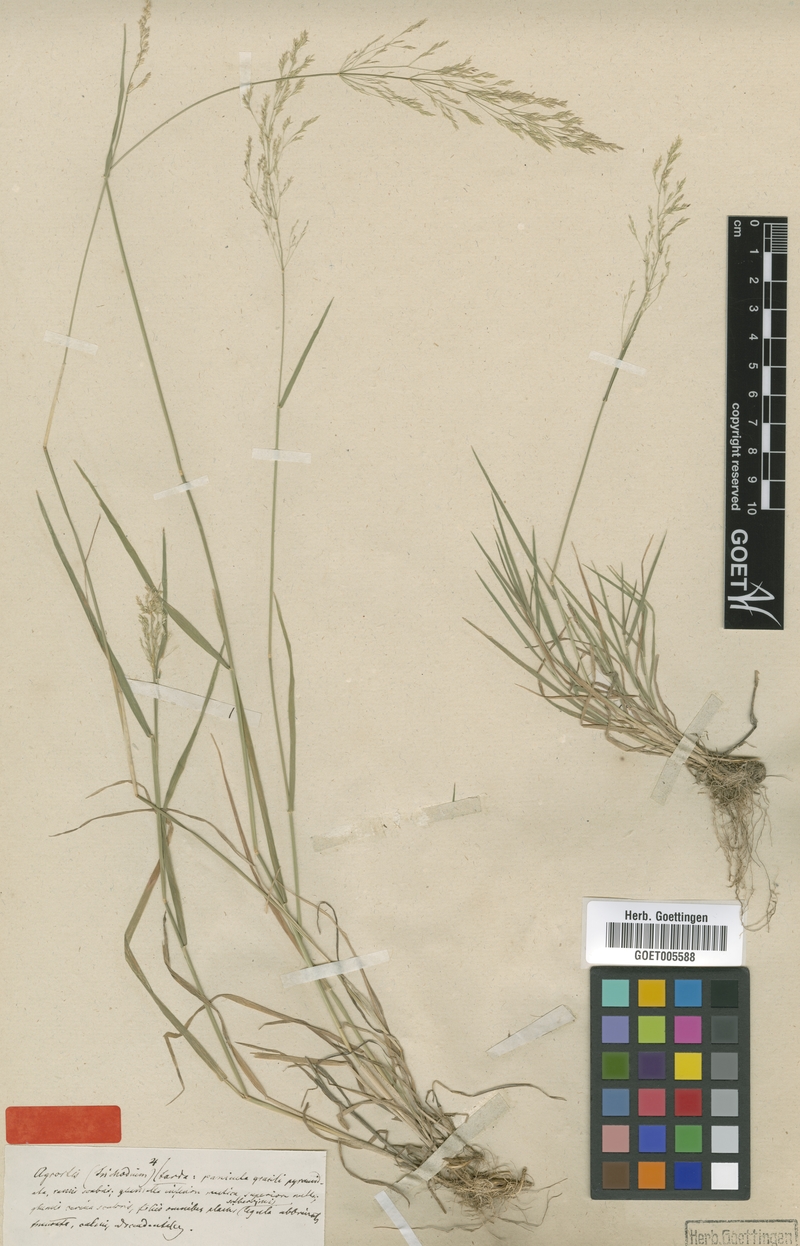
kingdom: Plantae
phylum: Tracheophyta
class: Liliopsida
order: Poales
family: Poaceae
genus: Agrostis
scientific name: Agrostis capillaris
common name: Colonial bentgrass
